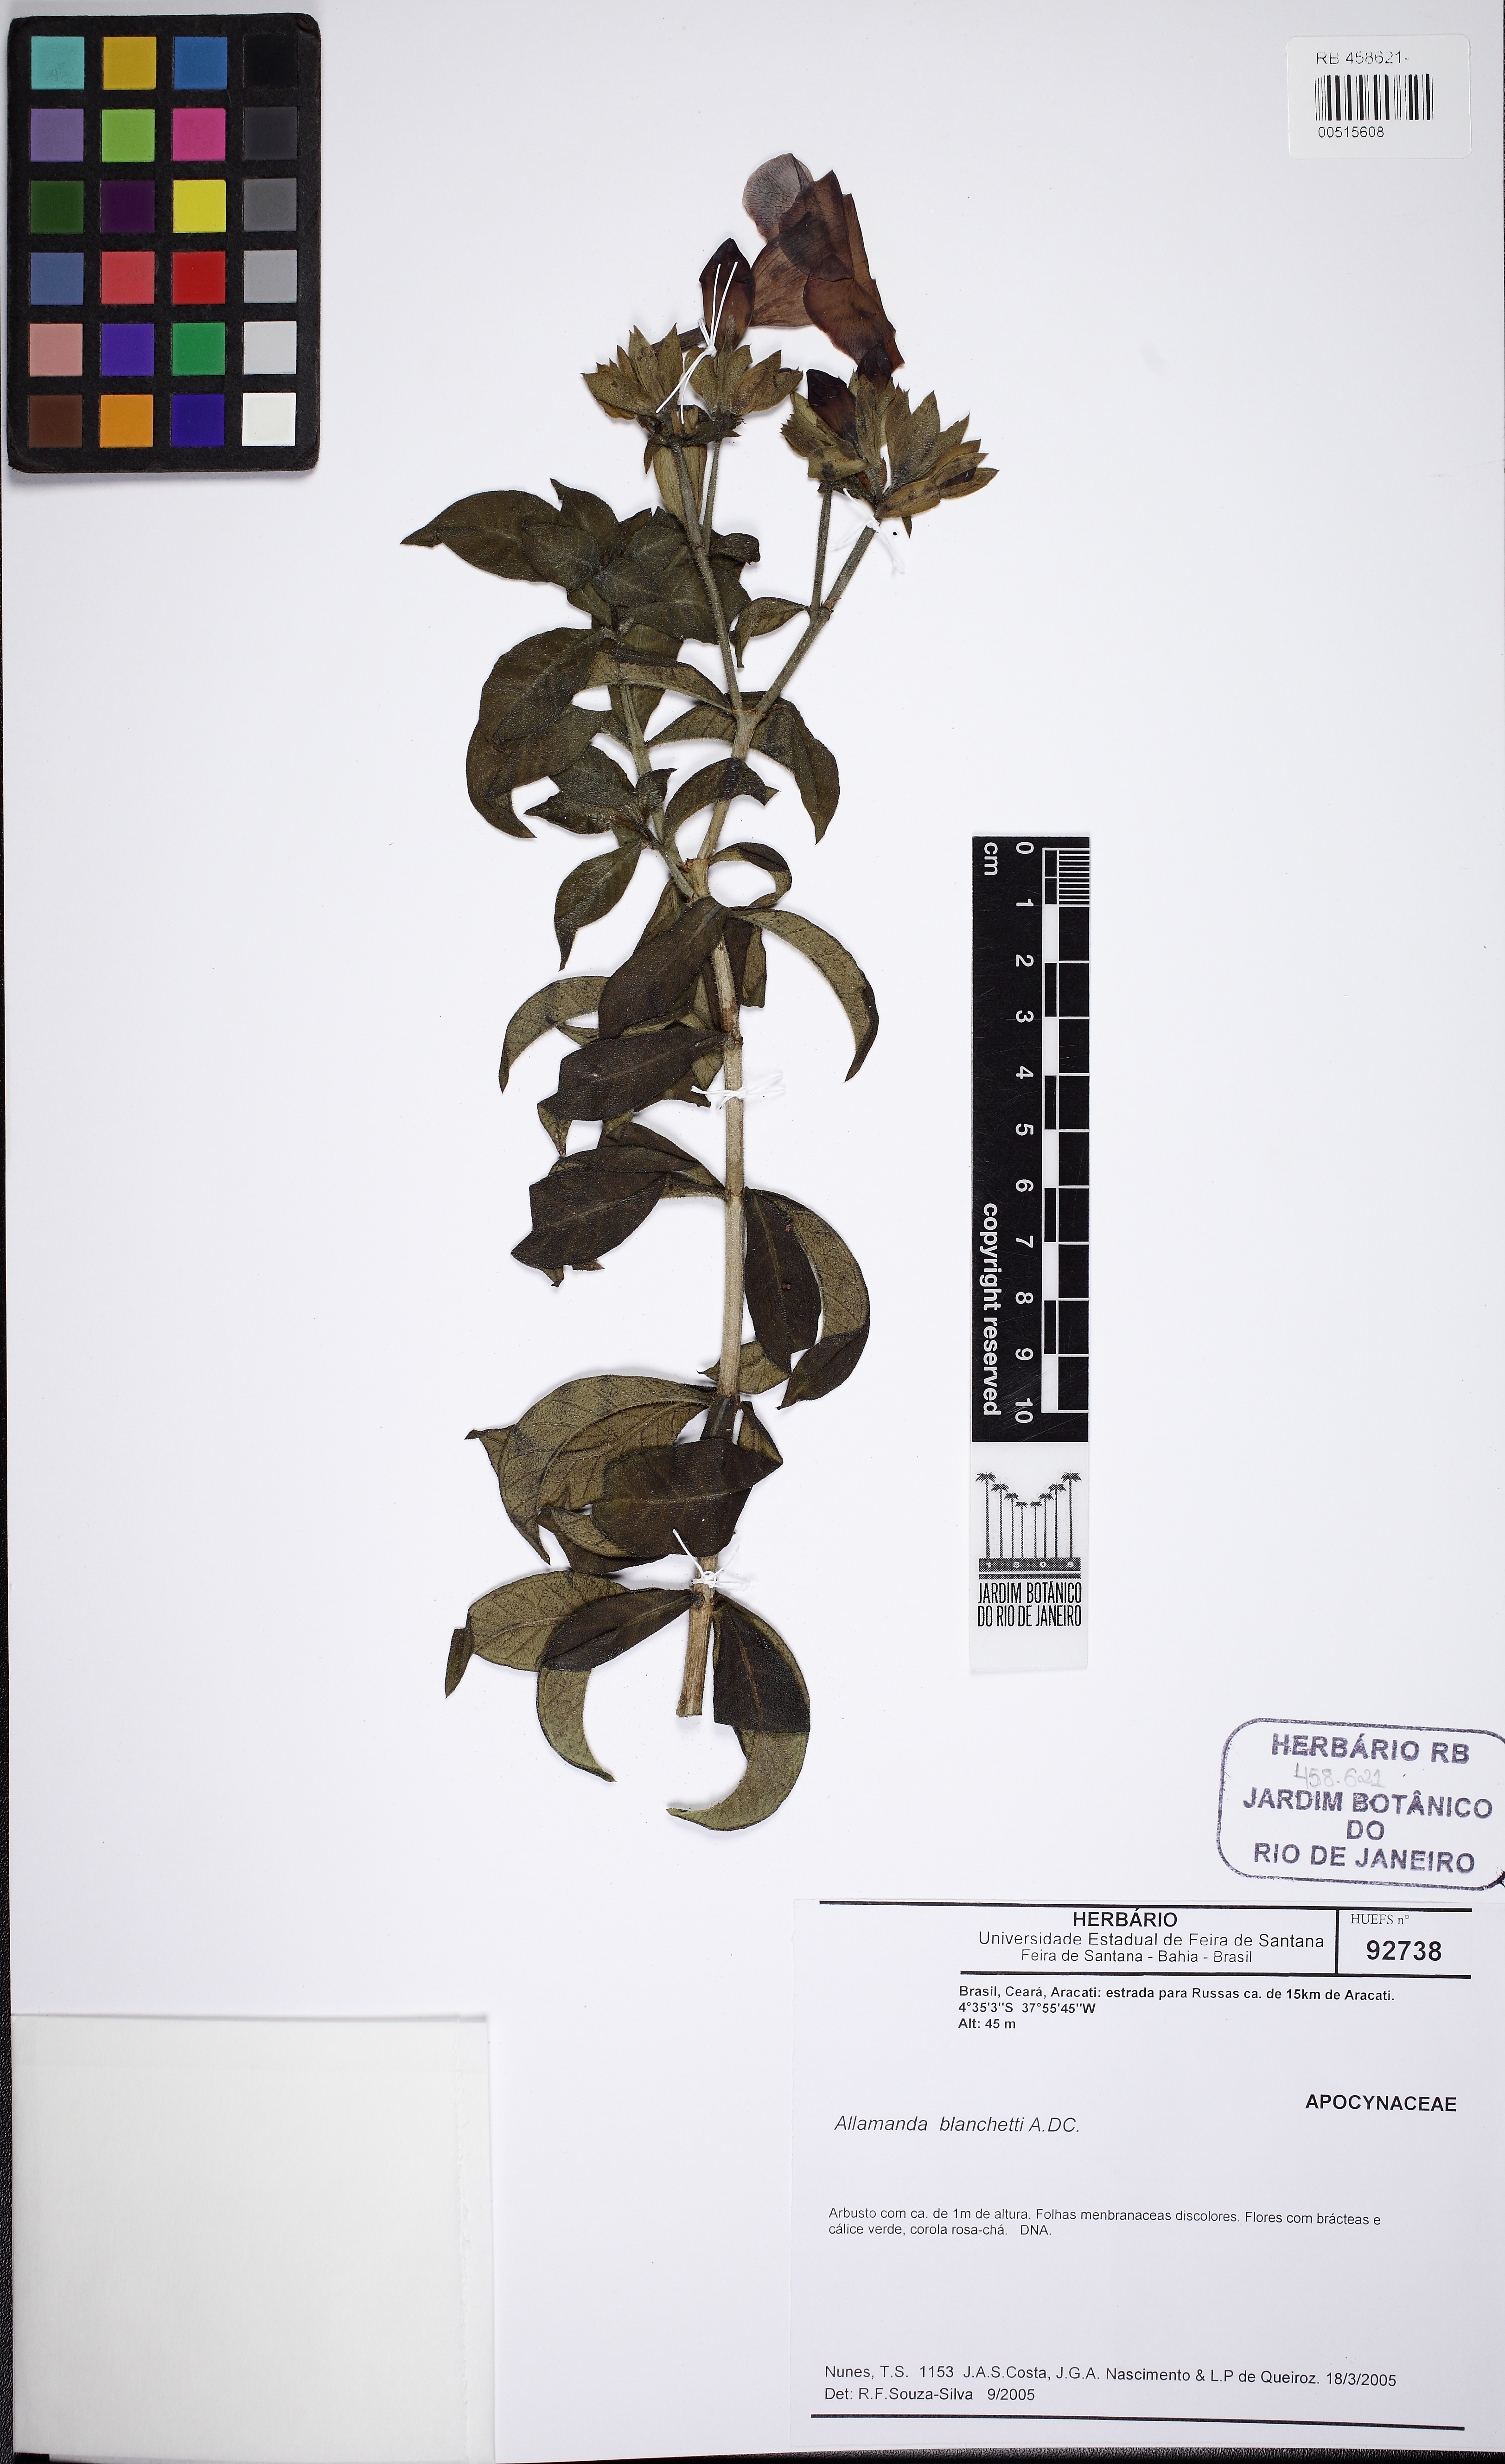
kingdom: Plantae
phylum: Tracheophyta
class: Magnoliopsida
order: Gentianales
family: Apocynaceae
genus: Allamanda
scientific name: Allamanda blanchetii
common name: Purple allamanda
